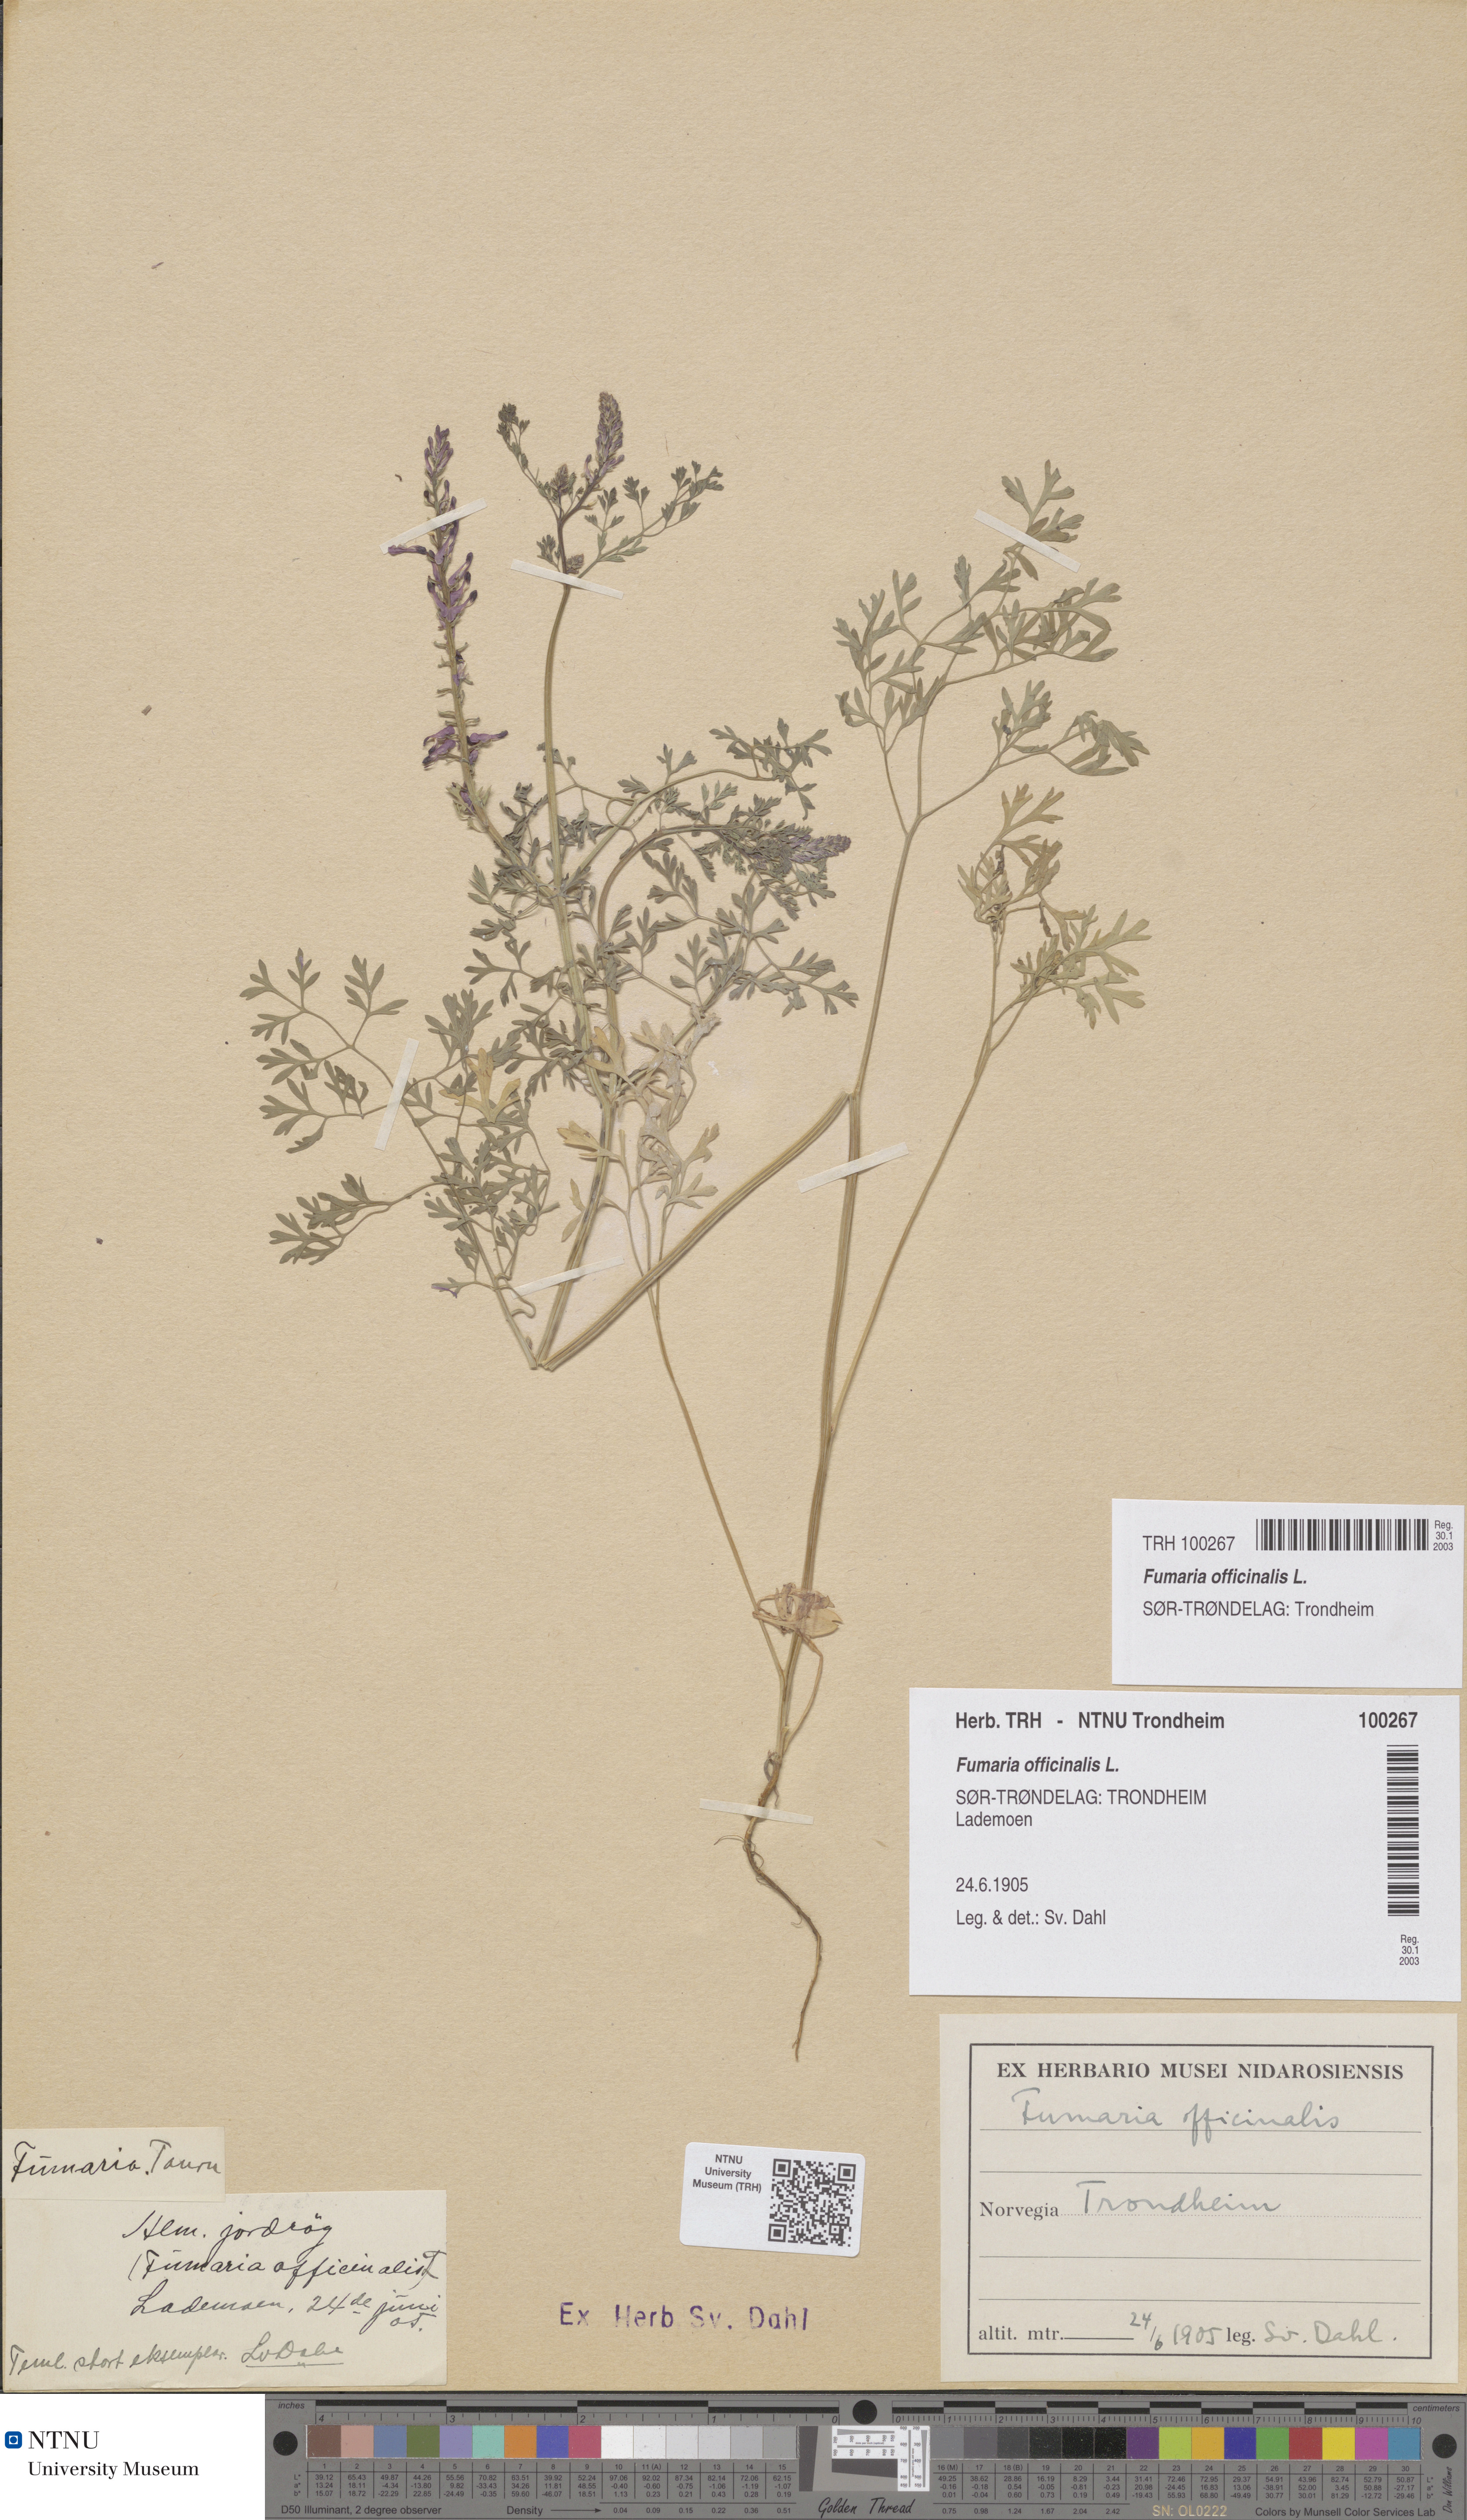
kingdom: Plantae
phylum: Tracheophyta
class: Magnoliopsida
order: Ranunculales
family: Papaveraceae
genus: Fumaria
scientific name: Fumaria officinalis
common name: Common fumitory
